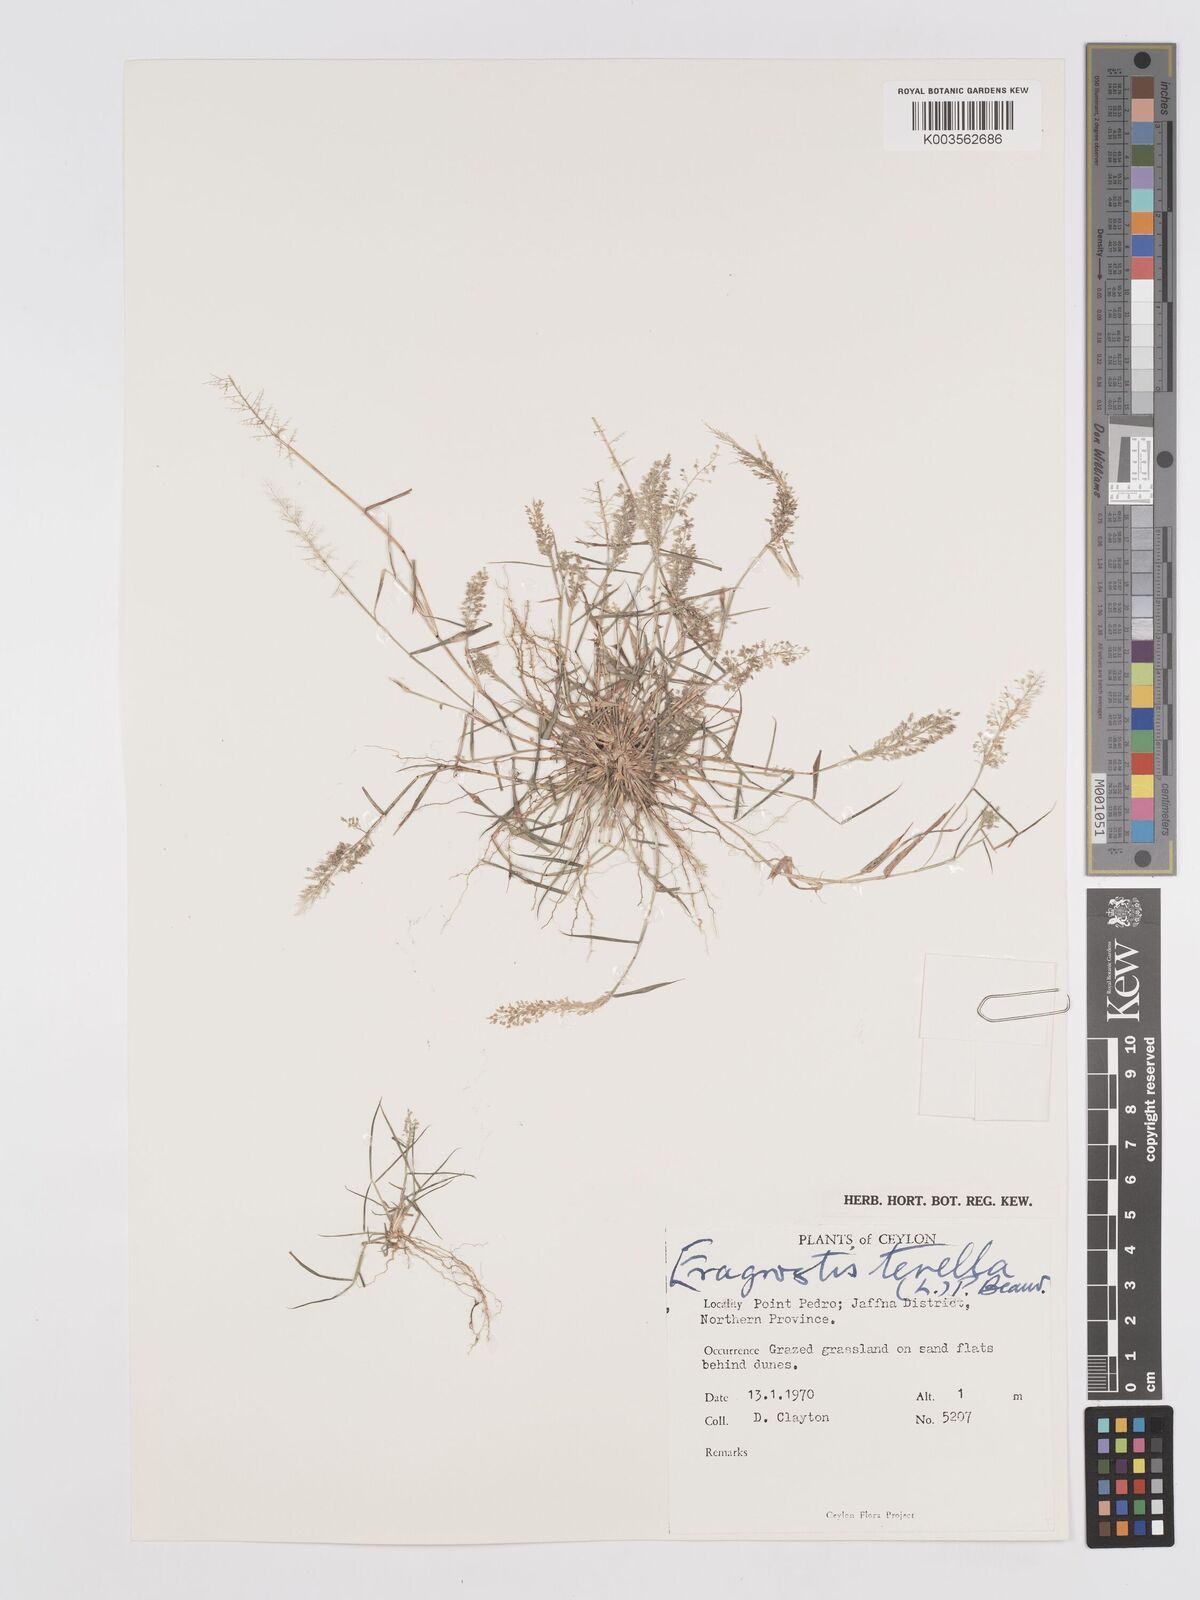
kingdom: Plantae
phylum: Tracheophyta
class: Liliopsida
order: Poales
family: Poaceae
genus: Eragrostis
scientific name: Eragrostis tenella
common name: Japanese lovegrass
